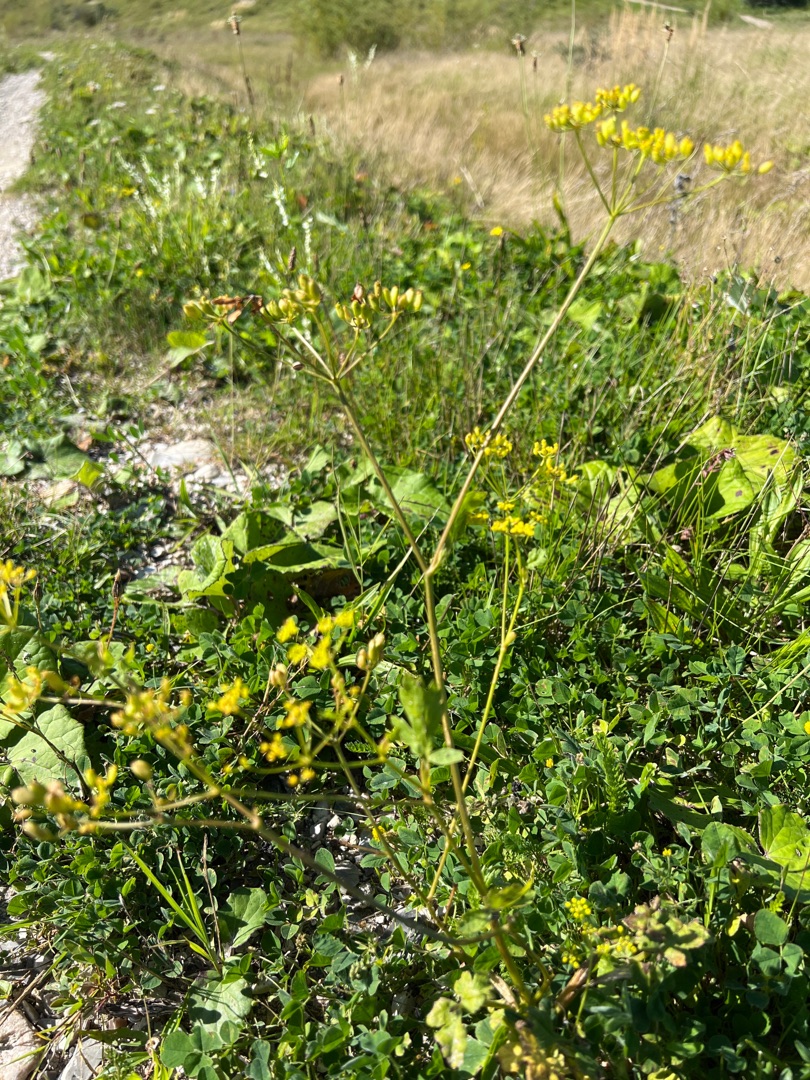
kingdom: Plantae
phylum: Tracheophyta
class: Magnoliopsida
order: Apiales
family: Apiaceae
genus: Pastinaca
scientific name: Pastinaca sativa
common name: Pastinak
